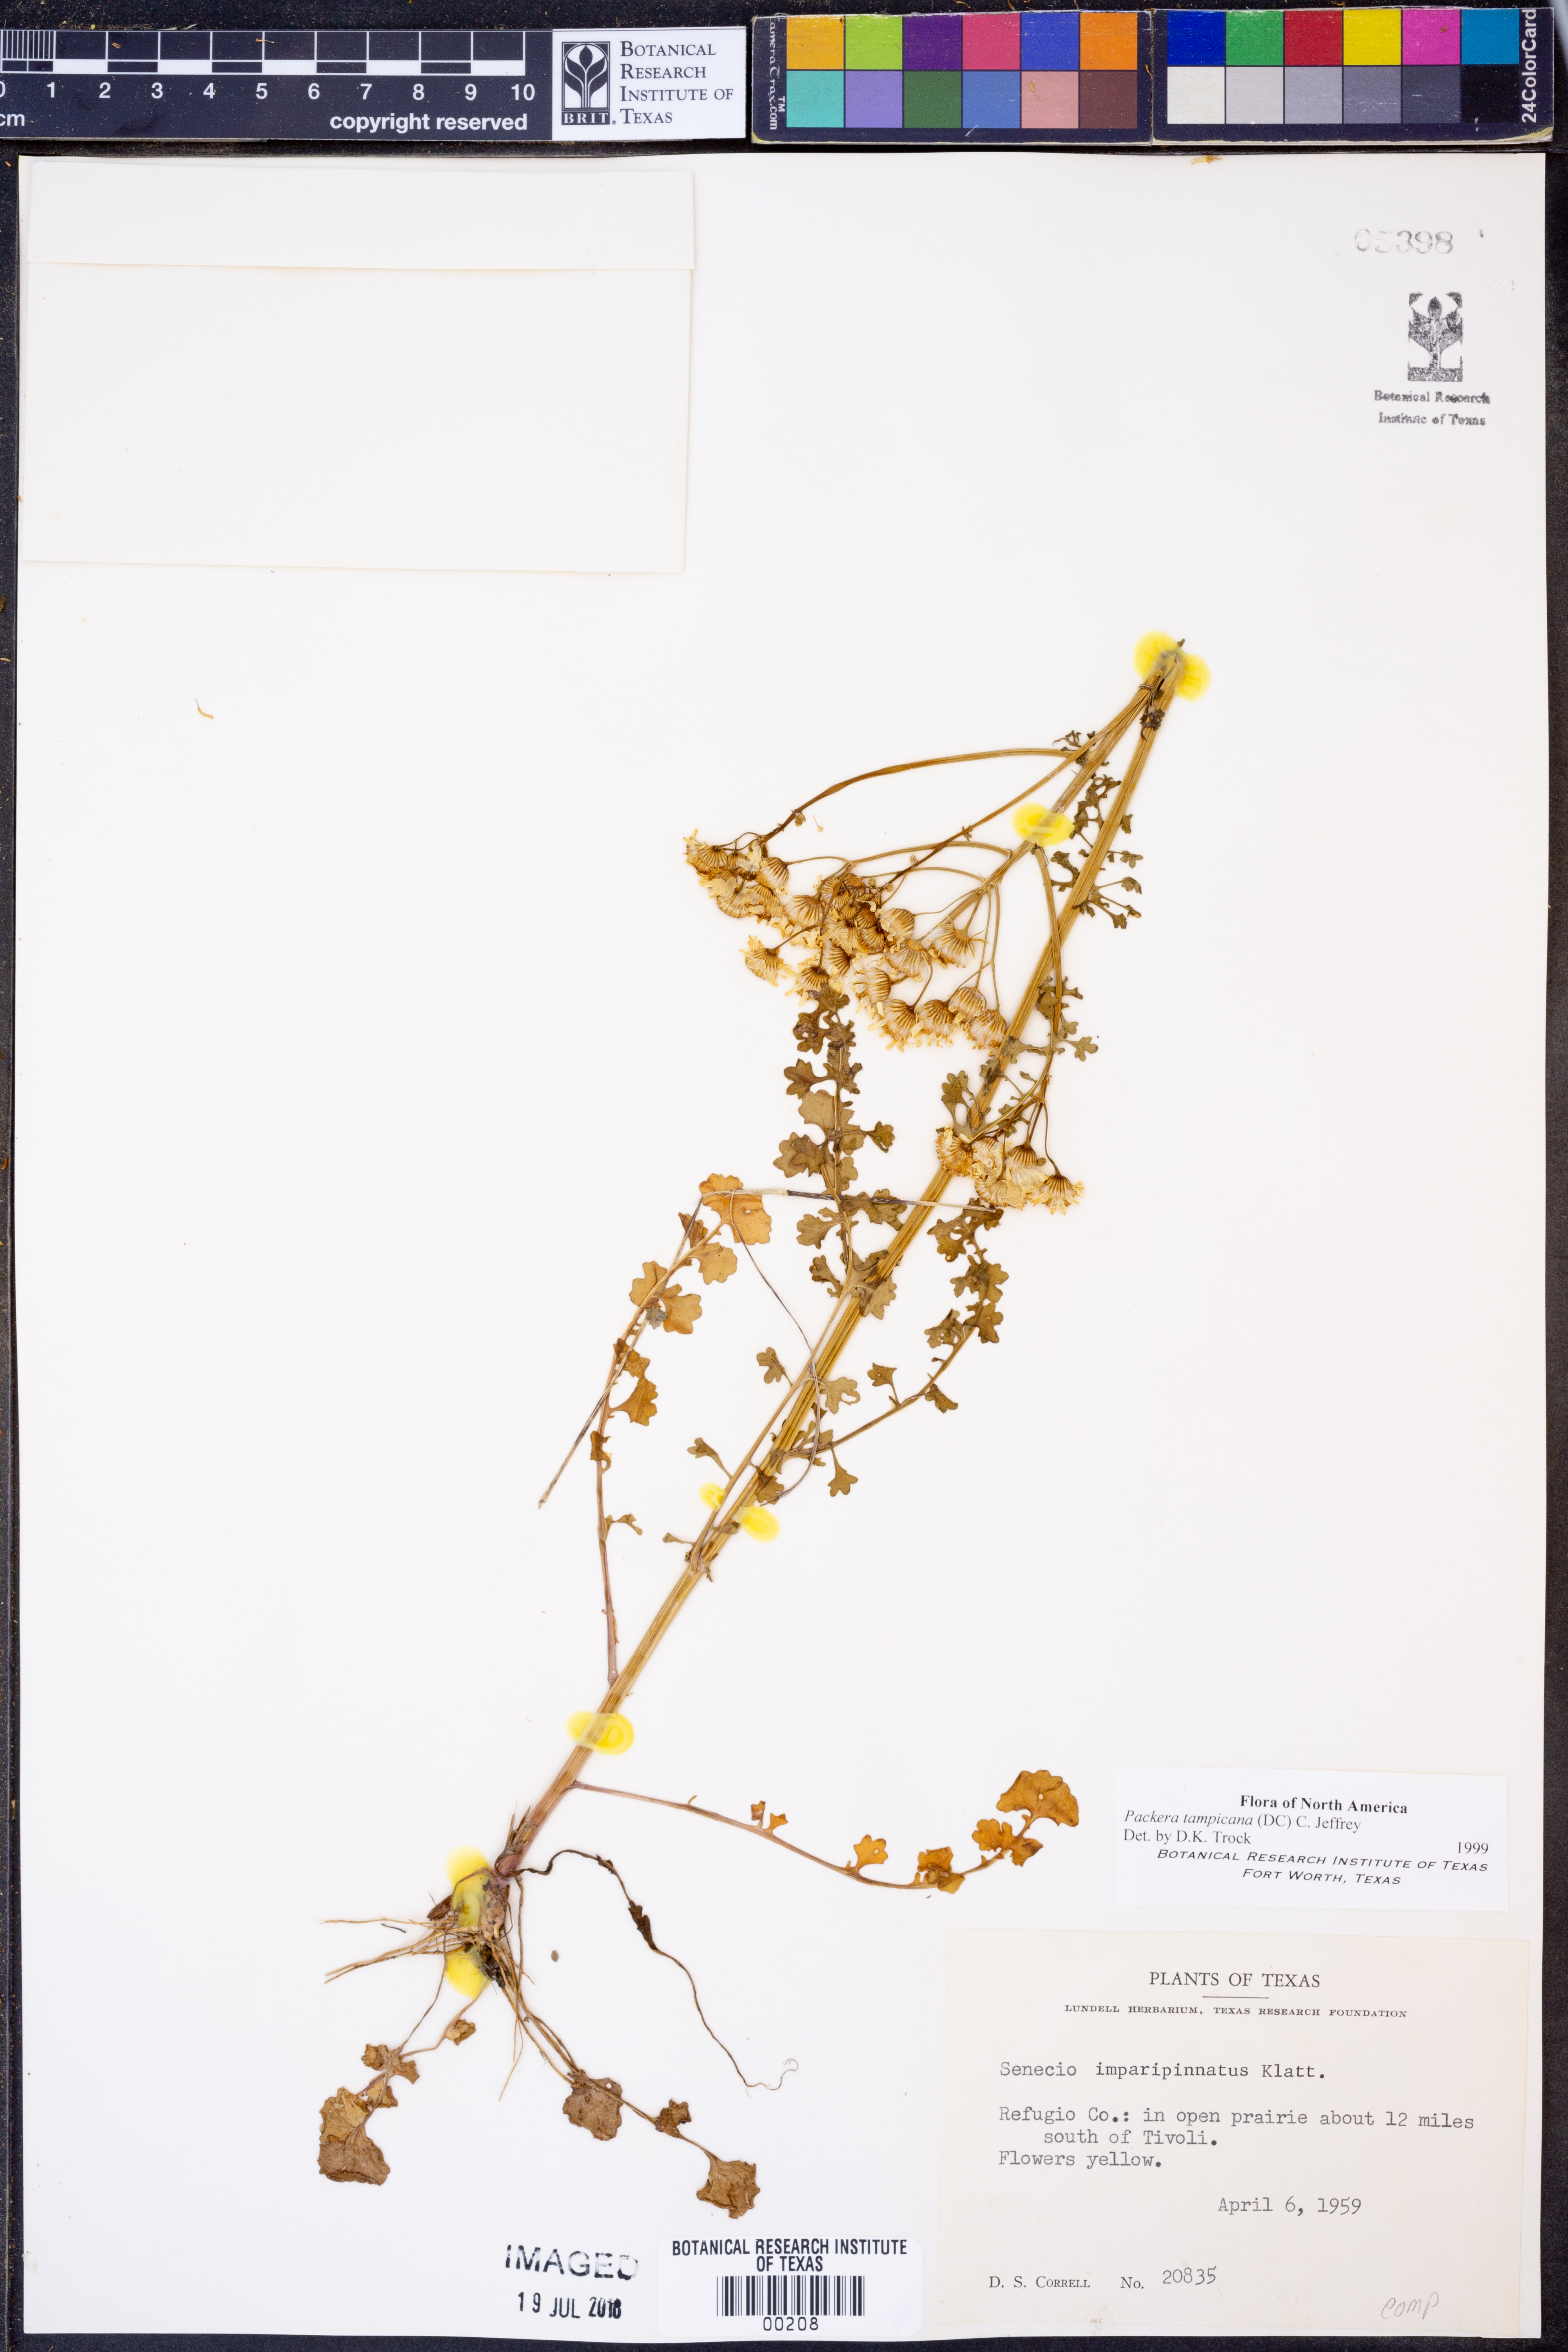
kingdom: Plantae
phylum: Tracheophyta
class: Magnoliopsida
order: Asterales
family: Asteraceae
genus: Packera
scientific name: Packera tampicana
